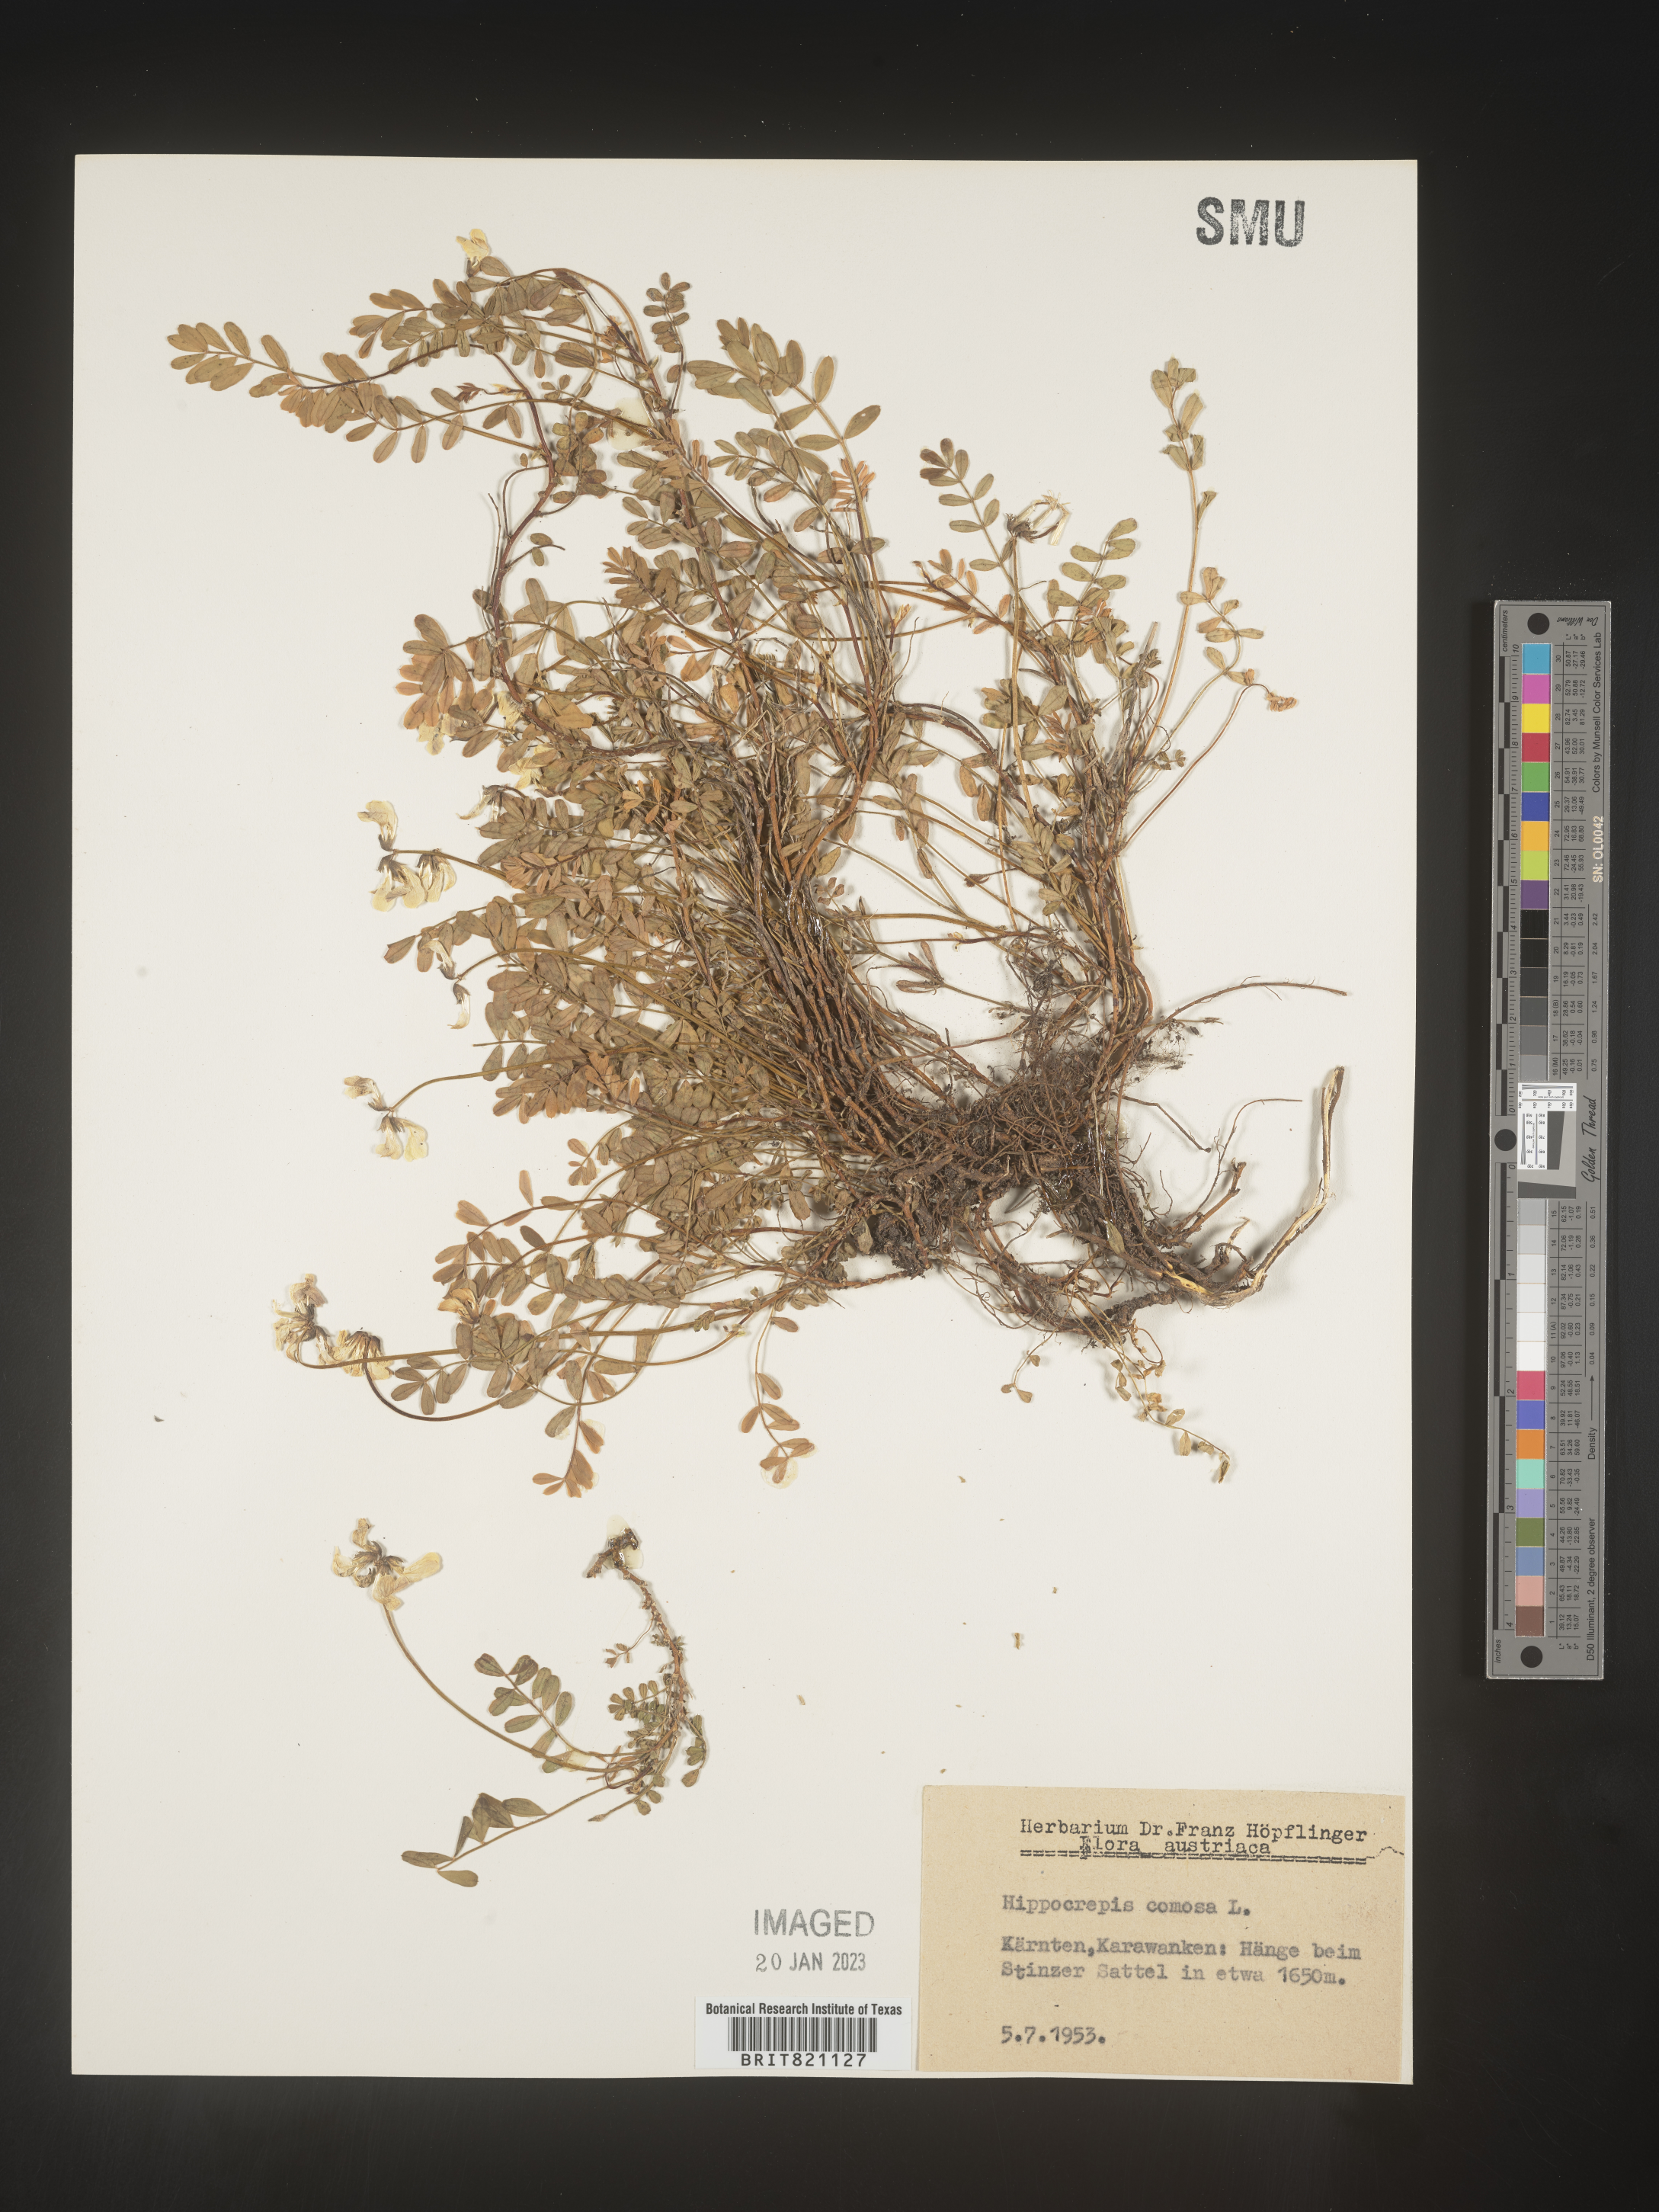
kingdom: Plantae
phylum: Tracheophyta
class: Magnoliopsida
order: Fabales
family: Fabaceae
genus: Hippocrepis
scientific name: Hippocrepis
